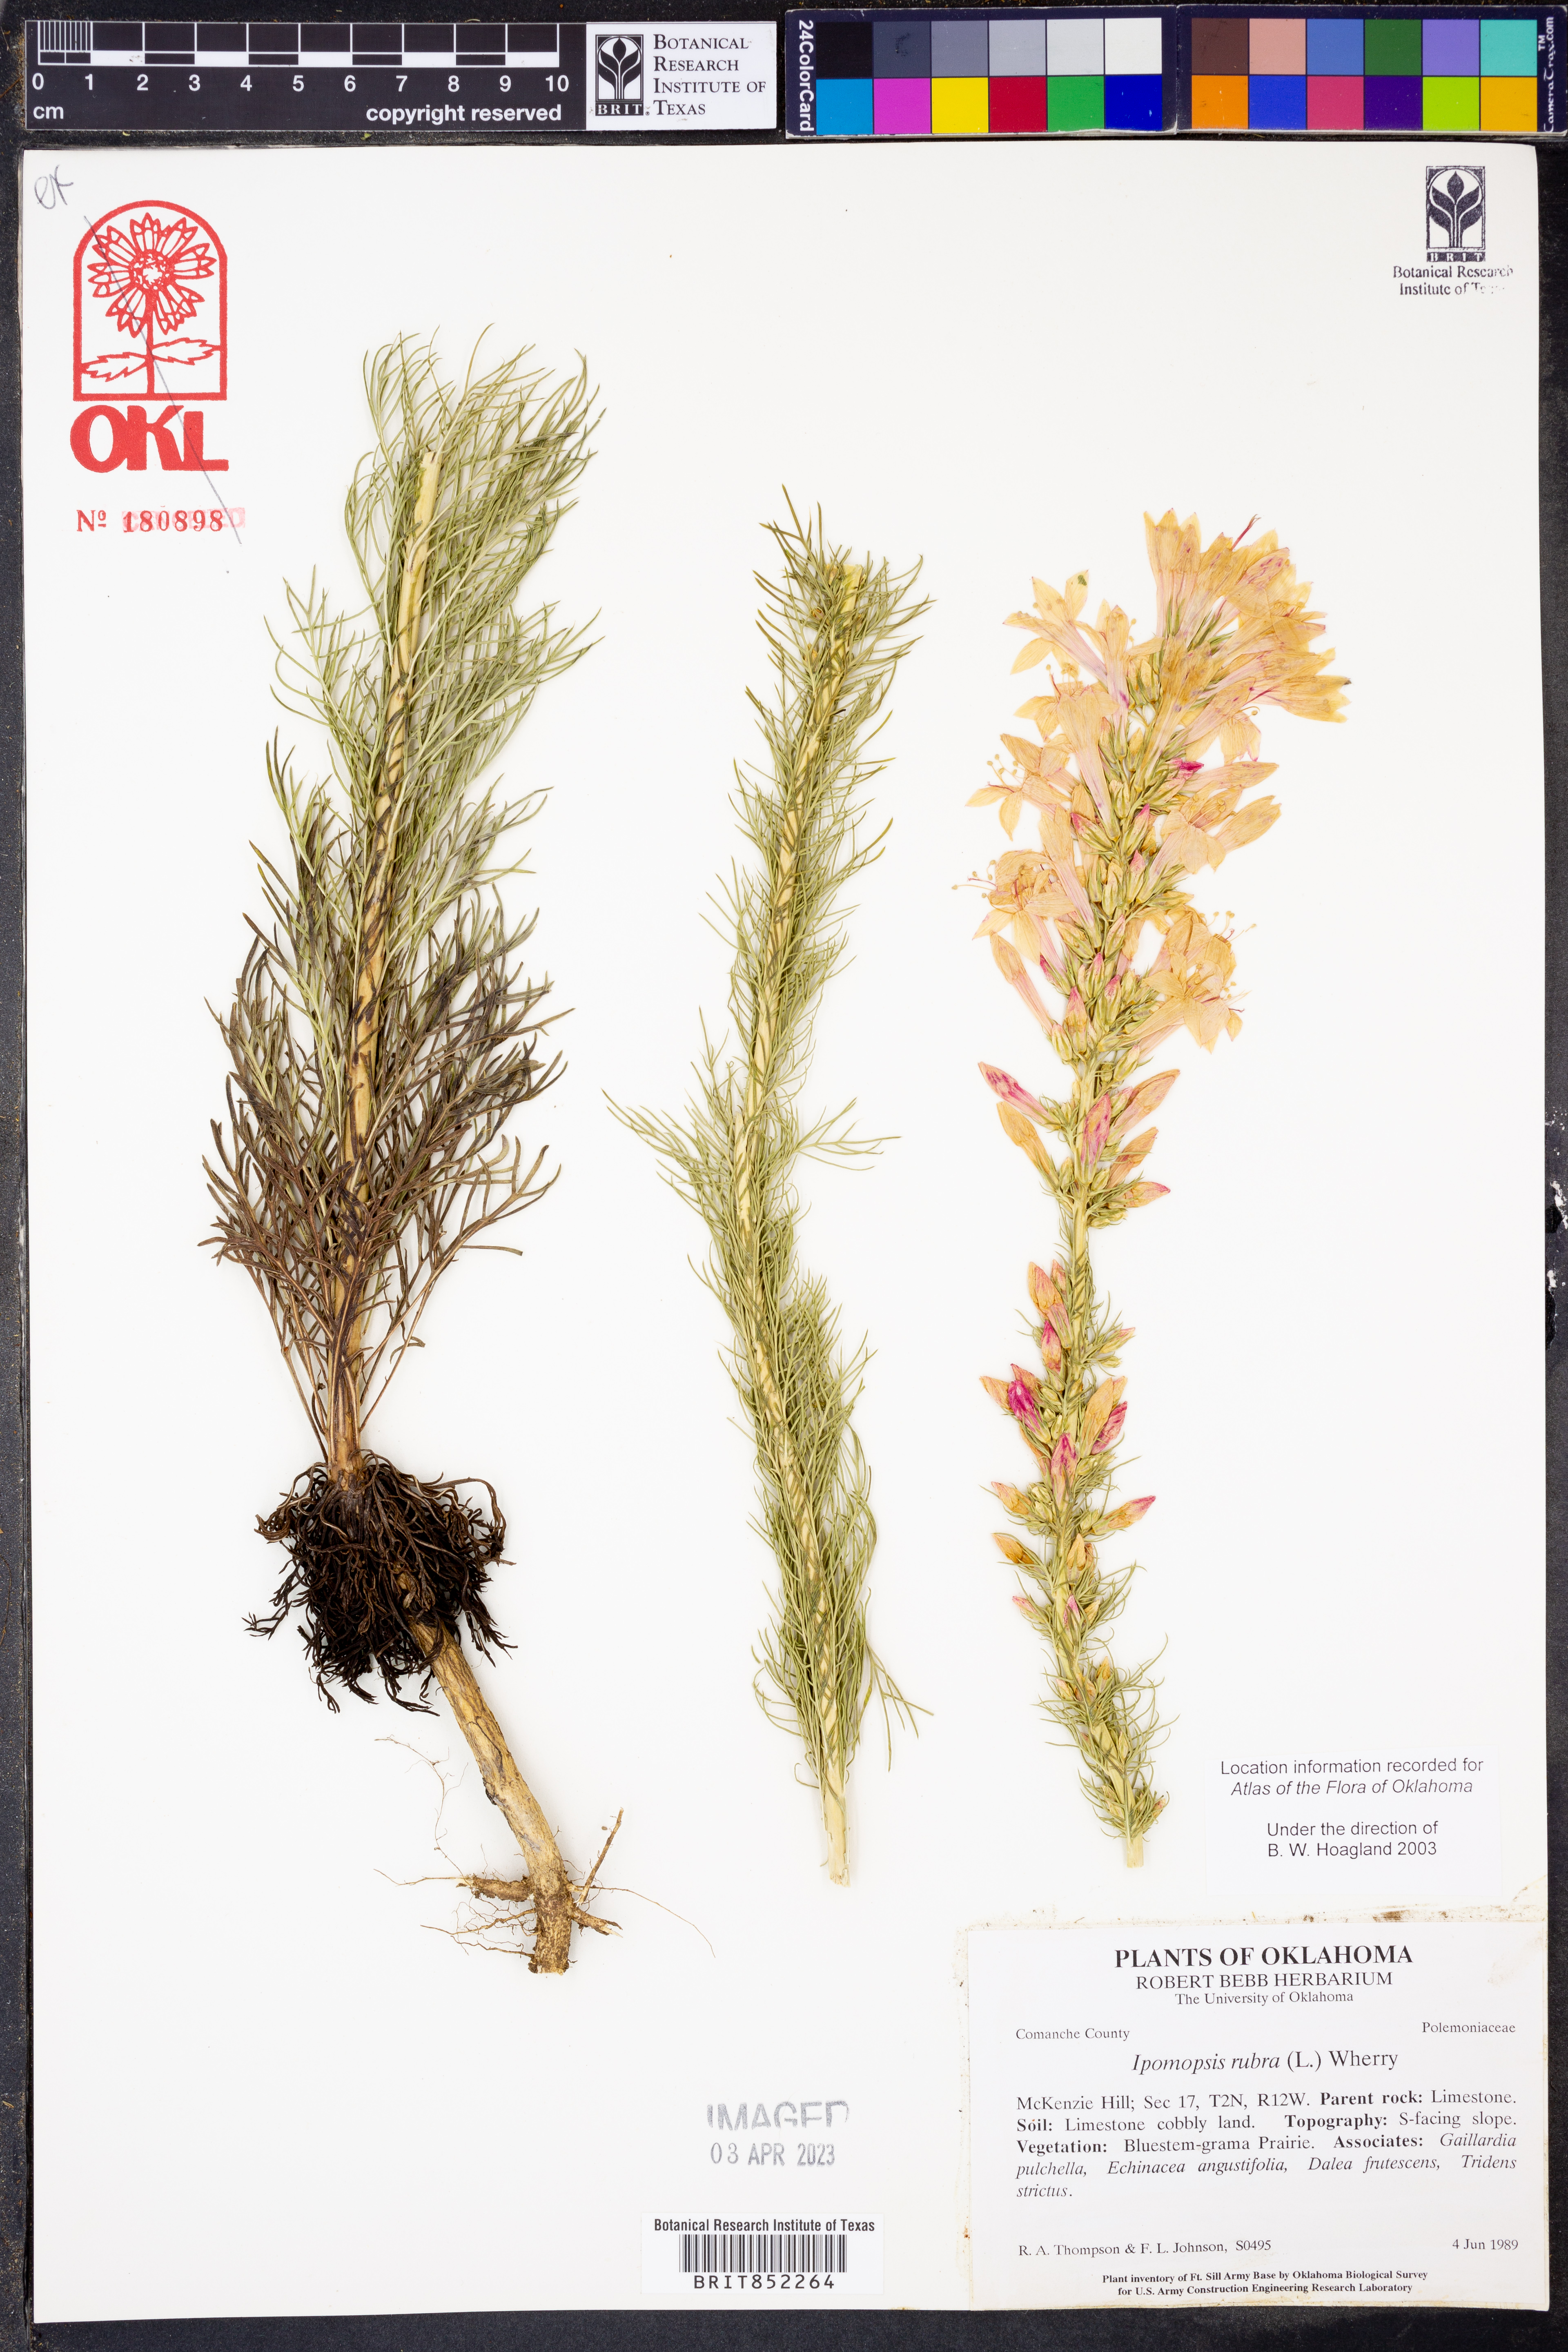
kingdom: Plantae
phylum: Tracheophyta
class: Magnoliopsida
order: Ericales
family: Polemoniaceae
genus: Ipomopsis
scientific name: Ipomopsis rubra
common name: Skyrocket
